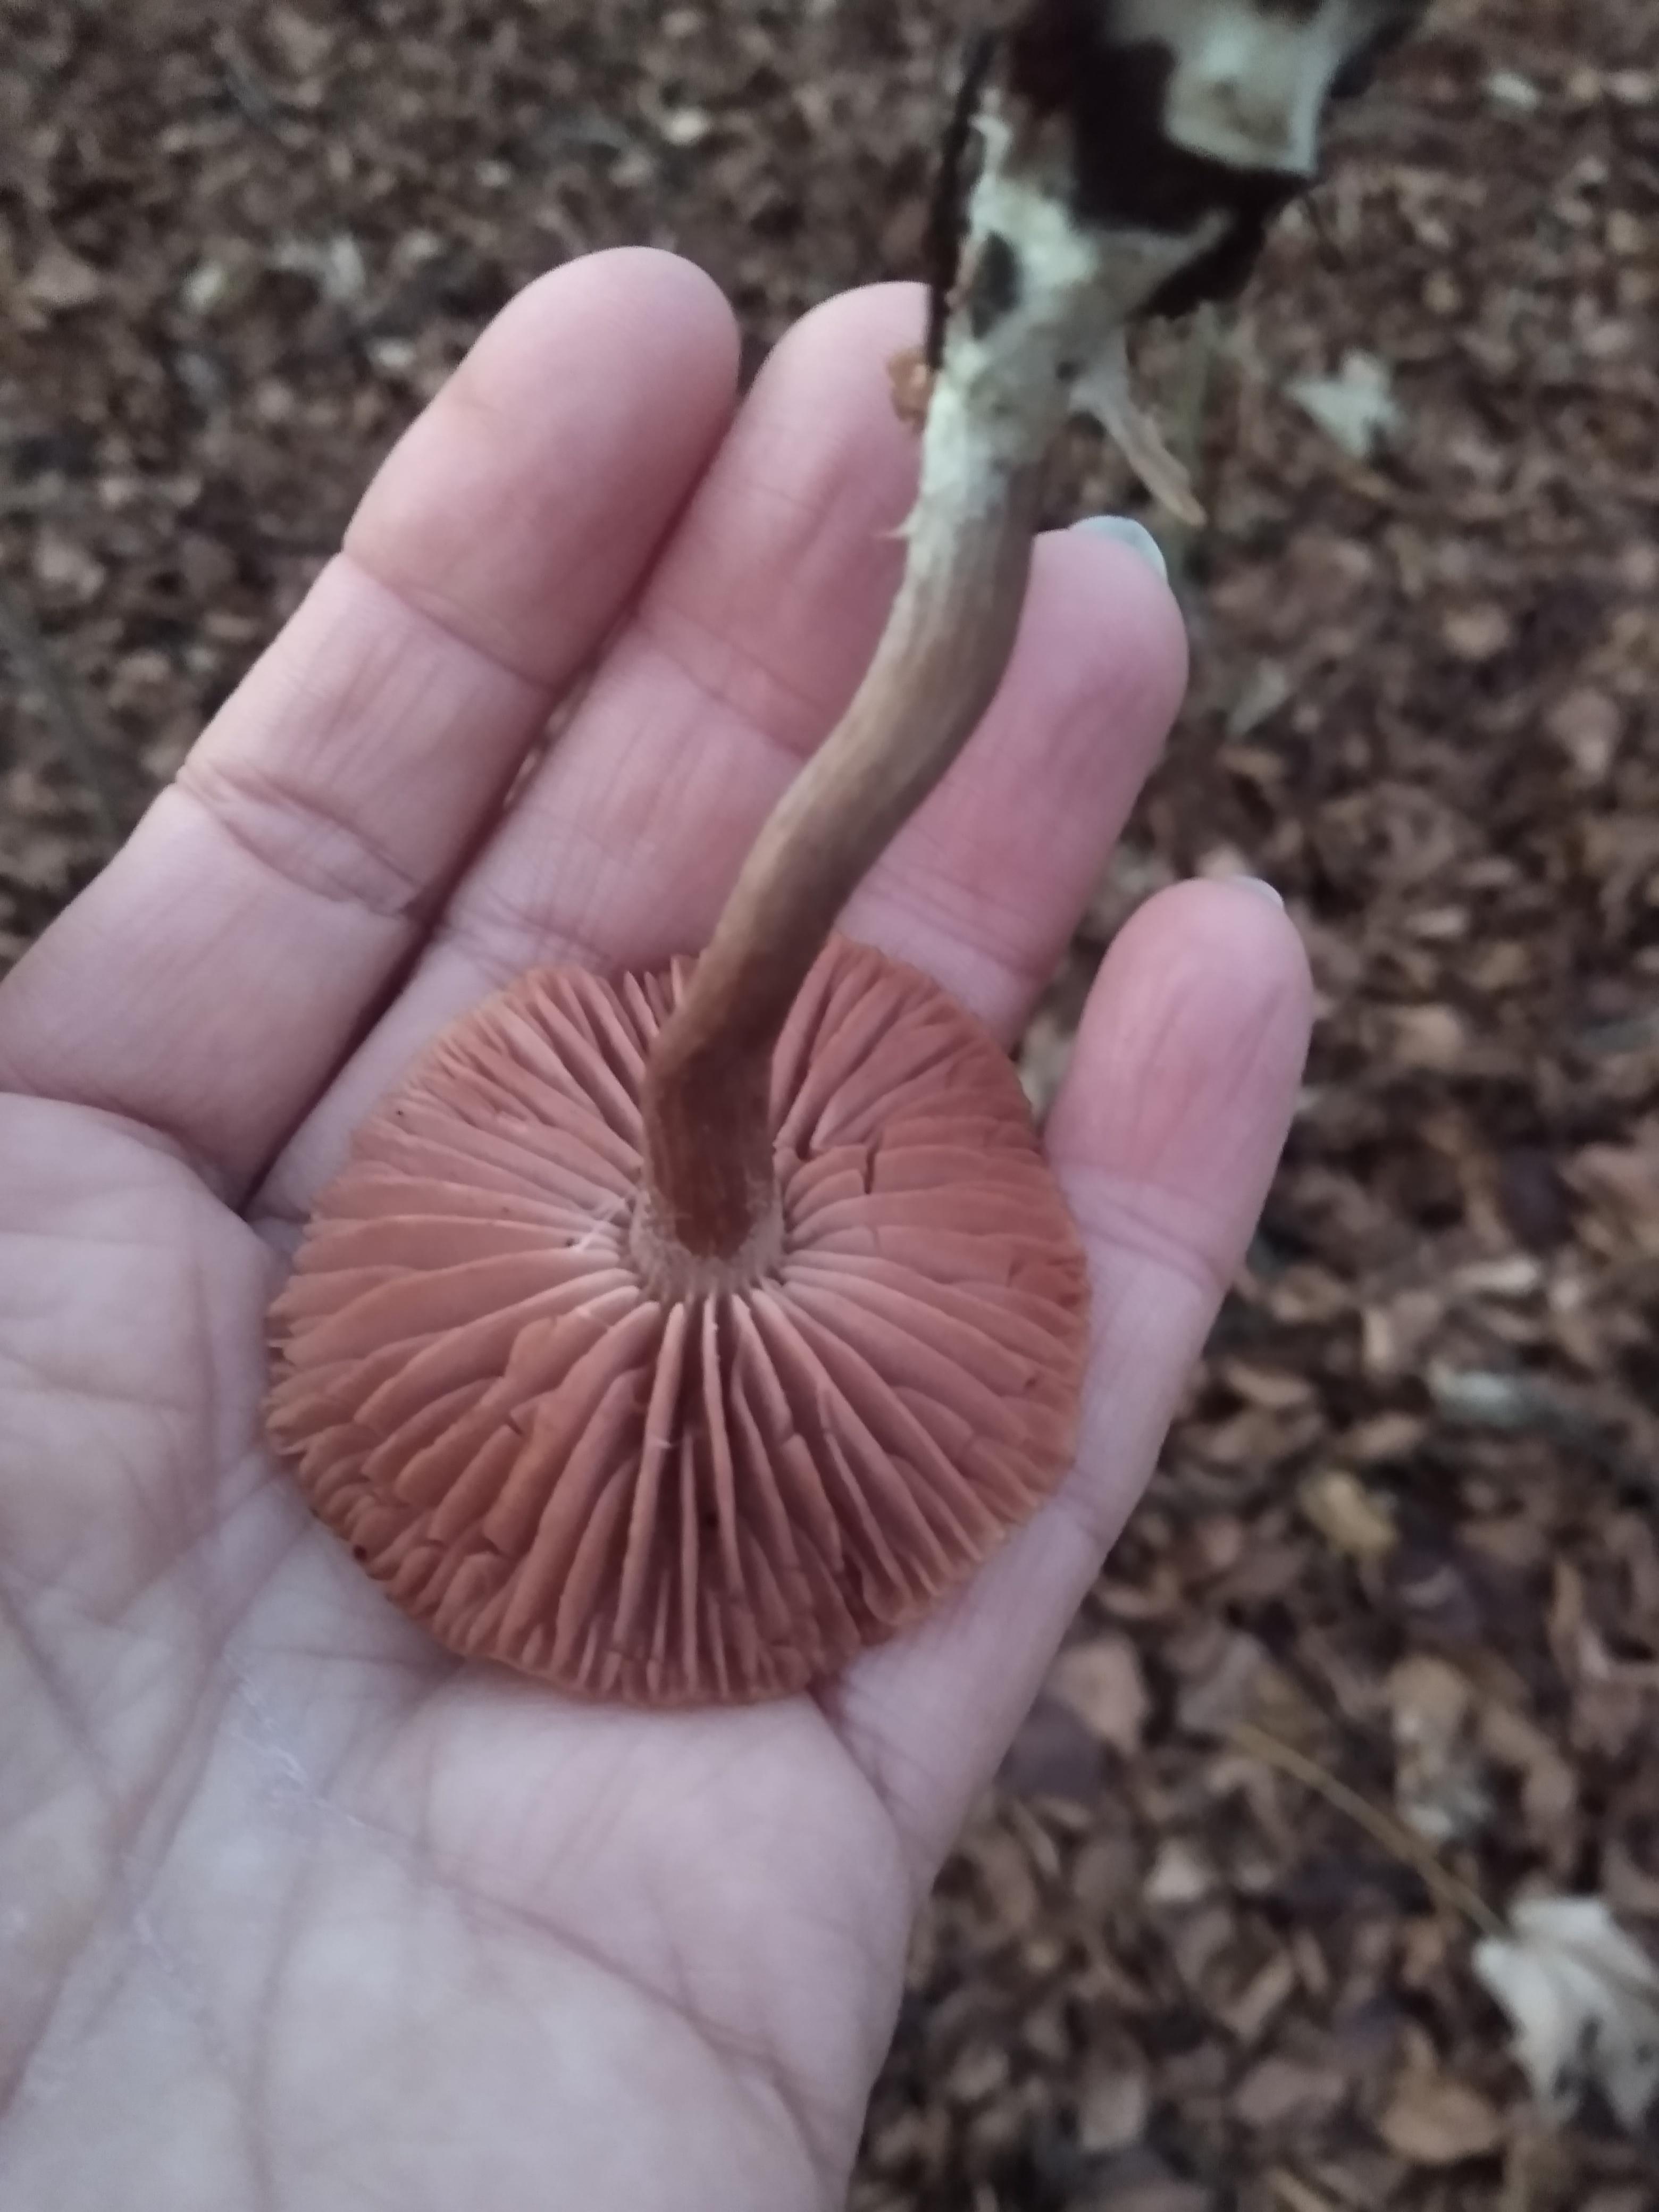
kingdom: Fungi
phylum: Basidiomycota
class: Agaricomycetes
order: Agaricales
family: Hydnangiaceae
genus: Laccaria
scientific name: Laccaria
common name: ametysthat
